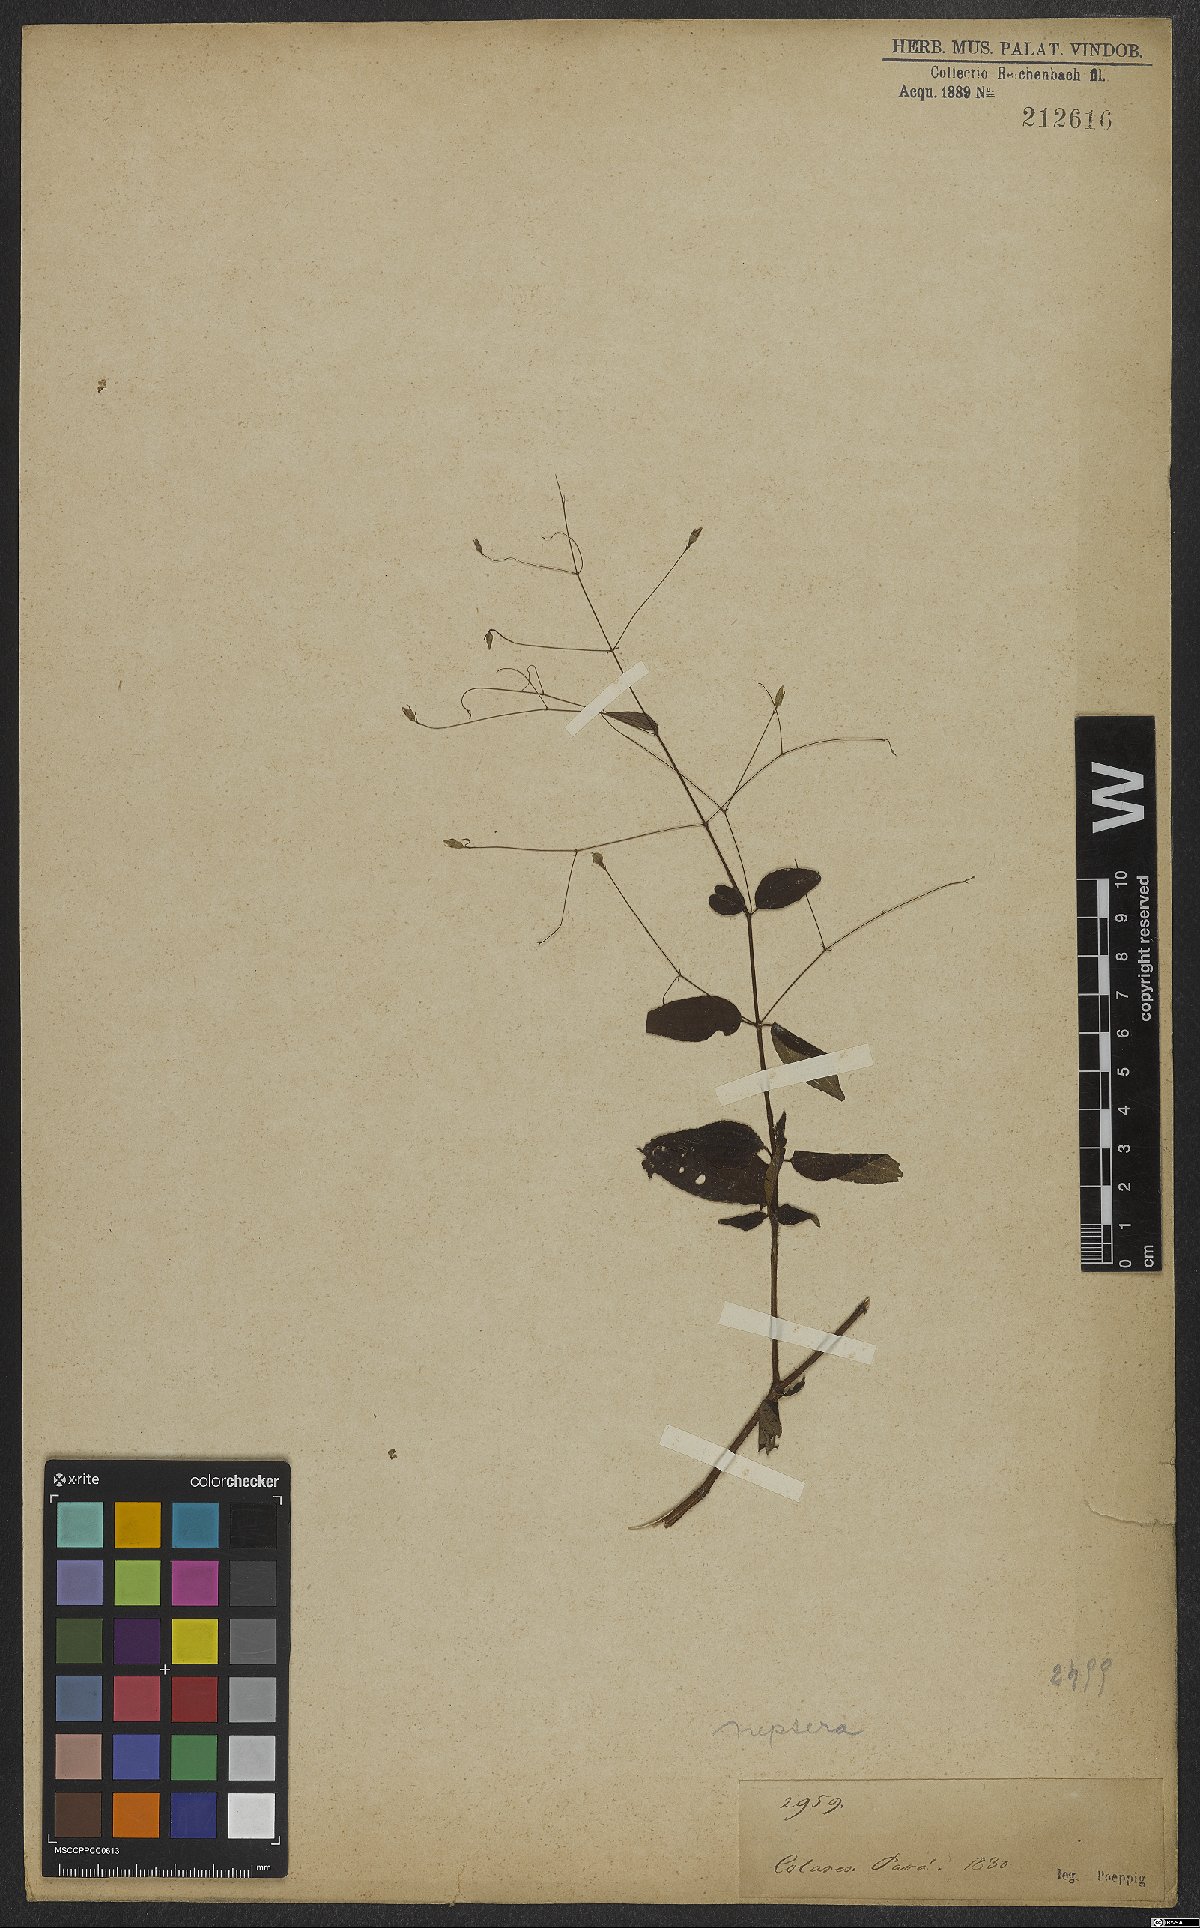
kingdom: Plantae
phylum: Tracheophyta
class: Magnoliopsida
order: Myrtales
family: Melastomataceae
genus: Nepsera
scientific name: Nepsera aquatica
